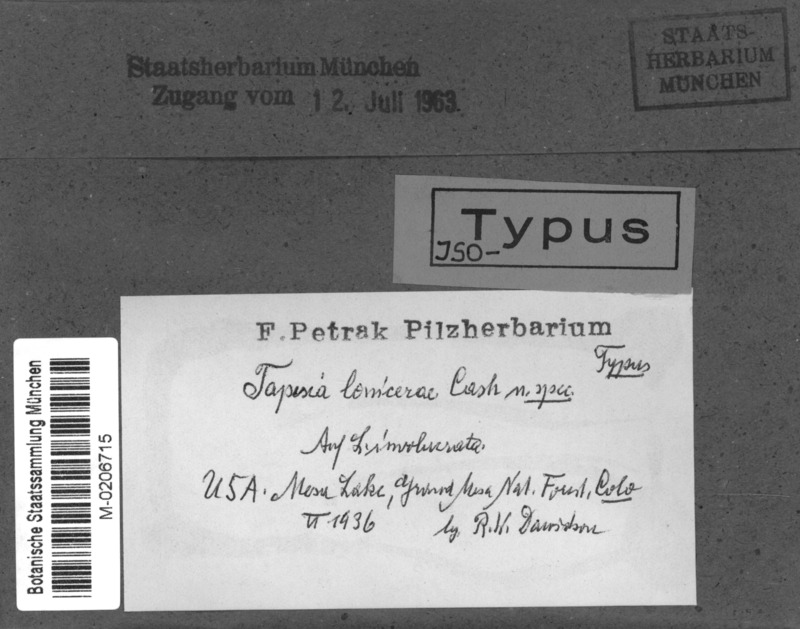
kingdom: Fungi
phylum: Ascomycota
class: Leotiomycetes
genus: Helotiella
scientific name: Helotiella lonicerae
